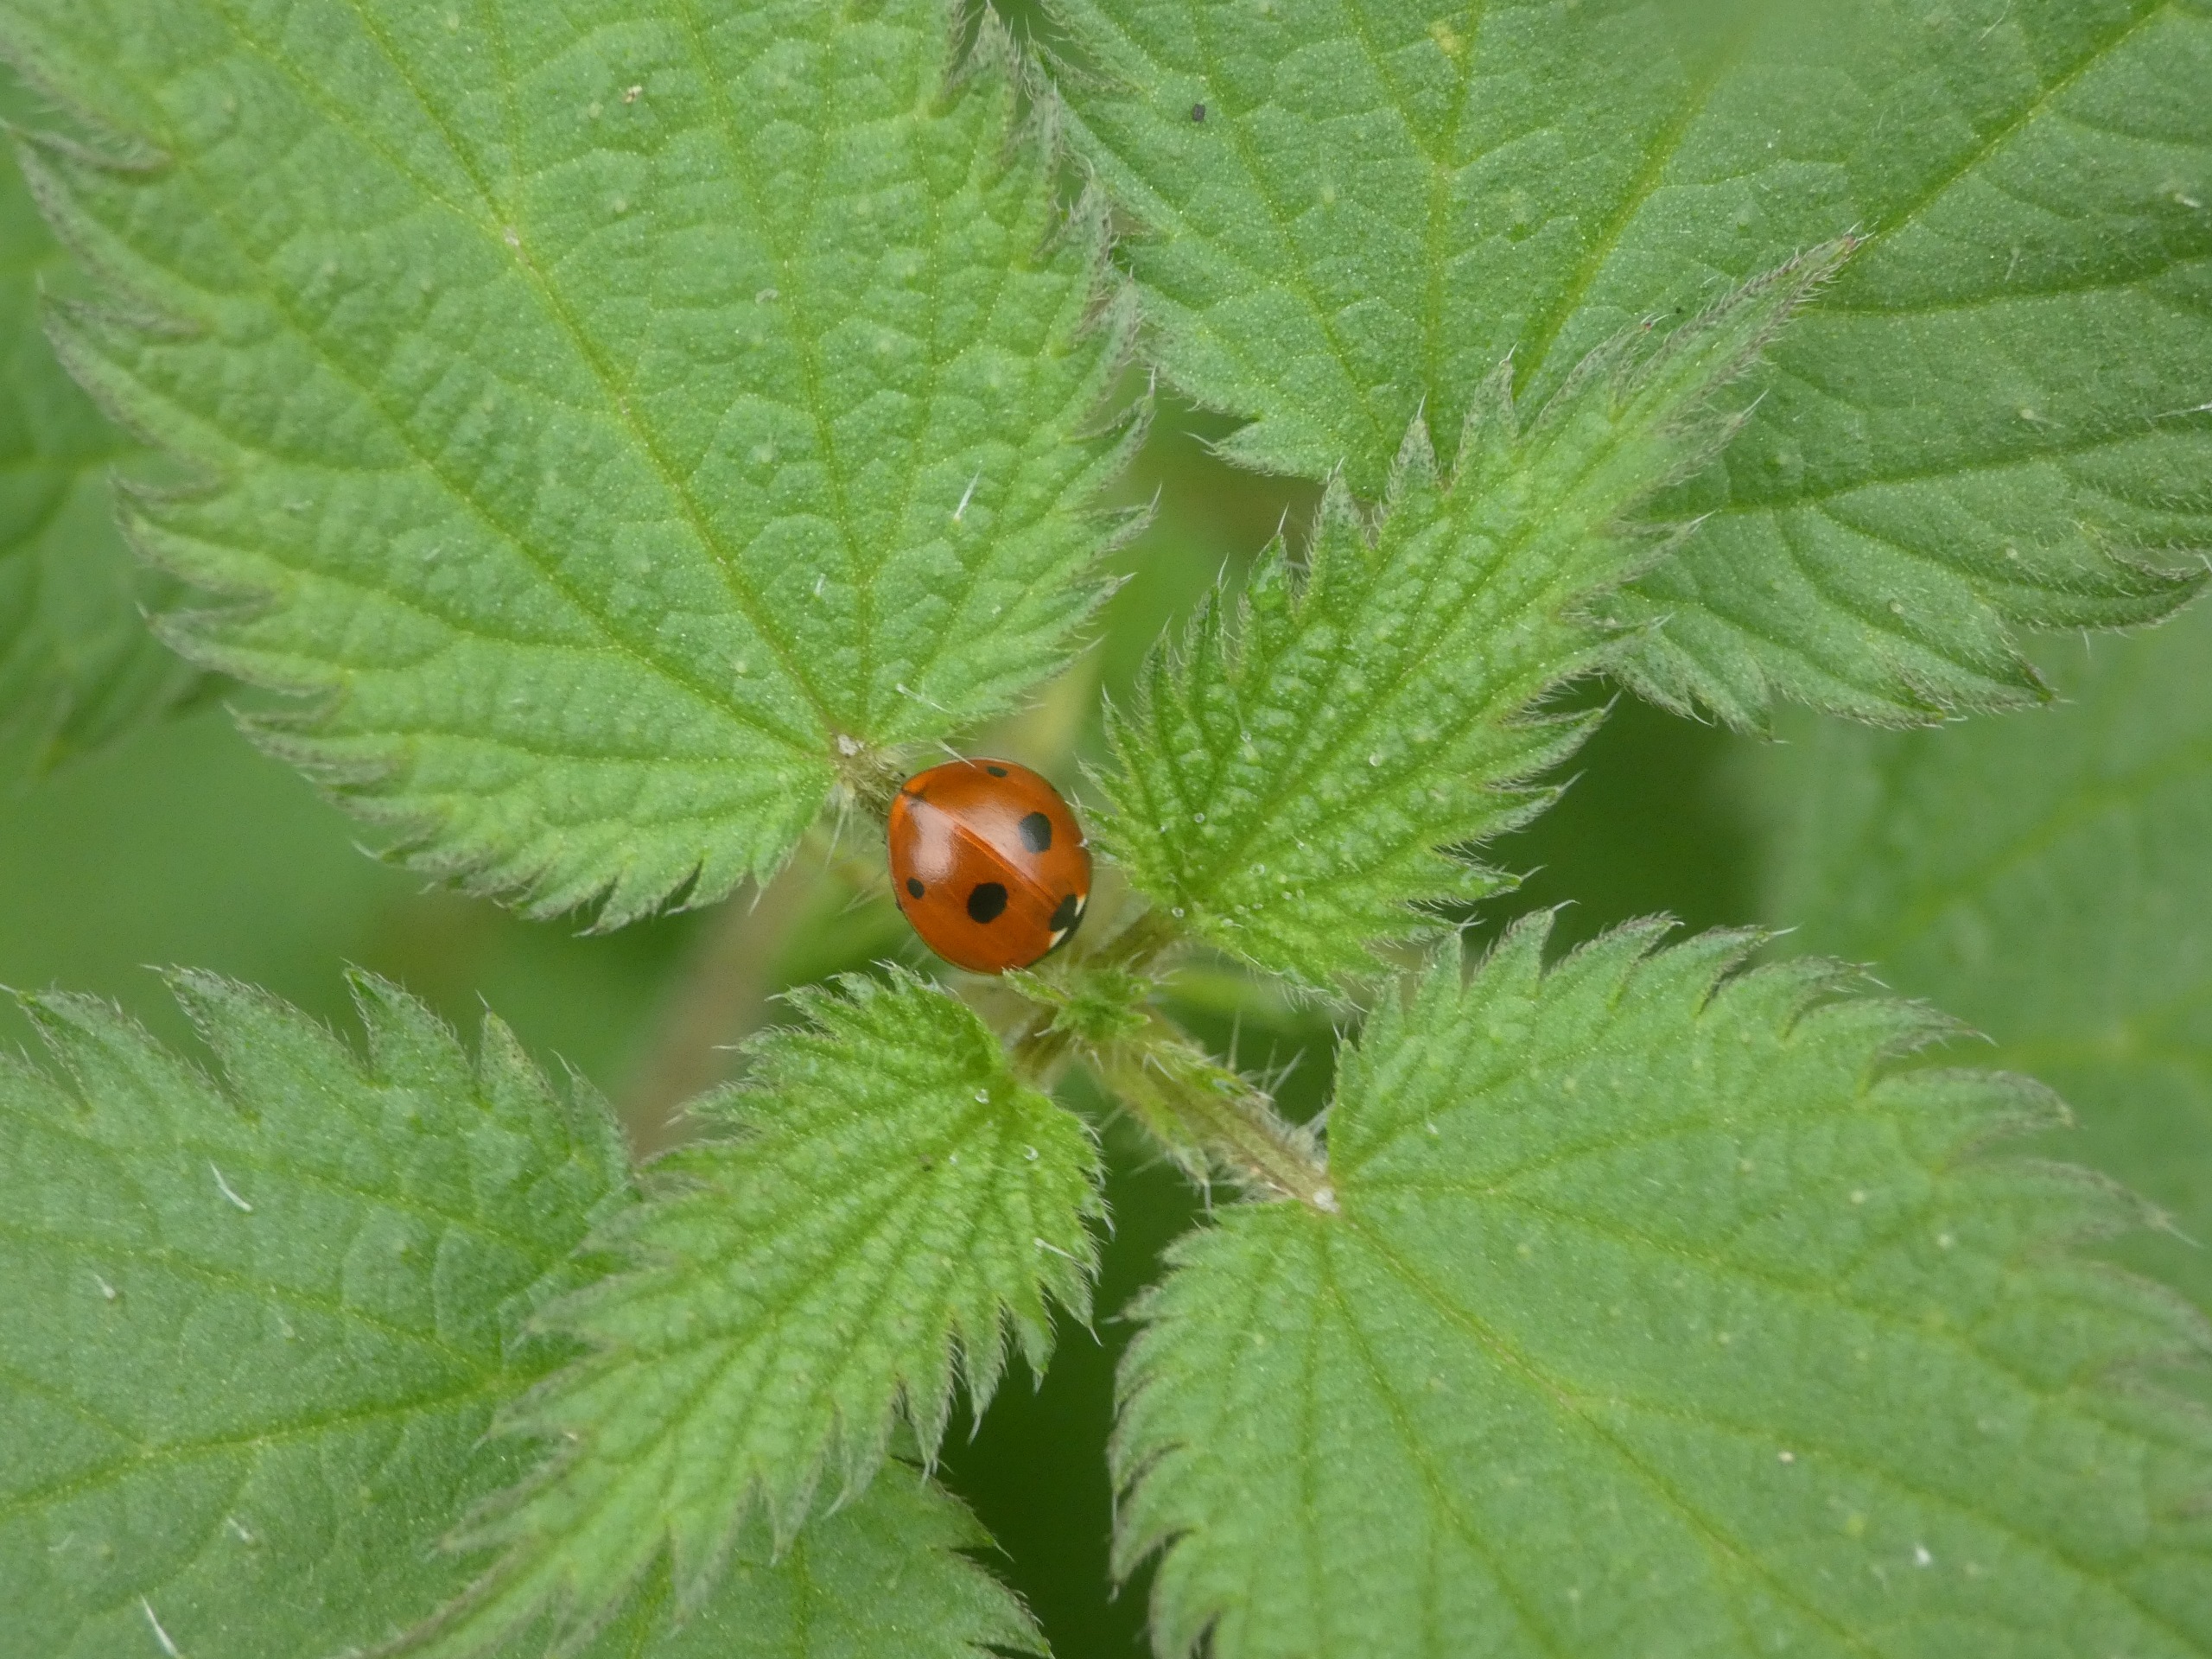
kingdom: Animalia
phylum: Arthropoda
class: Insecta
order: Coleoptera
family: Coccinellidae
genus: Coccinella
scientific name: Coccinella quinquepunctata
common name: Femplettet mariehøne
